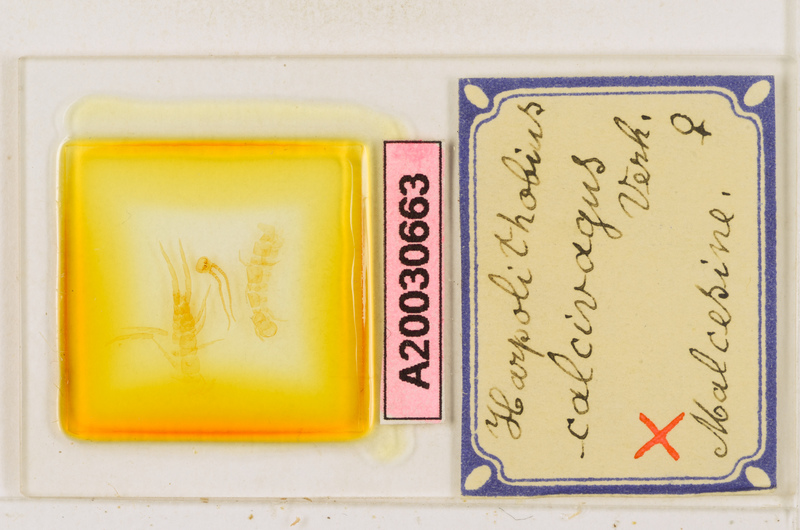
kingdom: Animalia
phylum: Arthropoda
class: Chilopoda
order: Lithobiomorpha
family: Lithobiidae
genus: Harpolithobius
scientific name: Harpolithobius anodus
